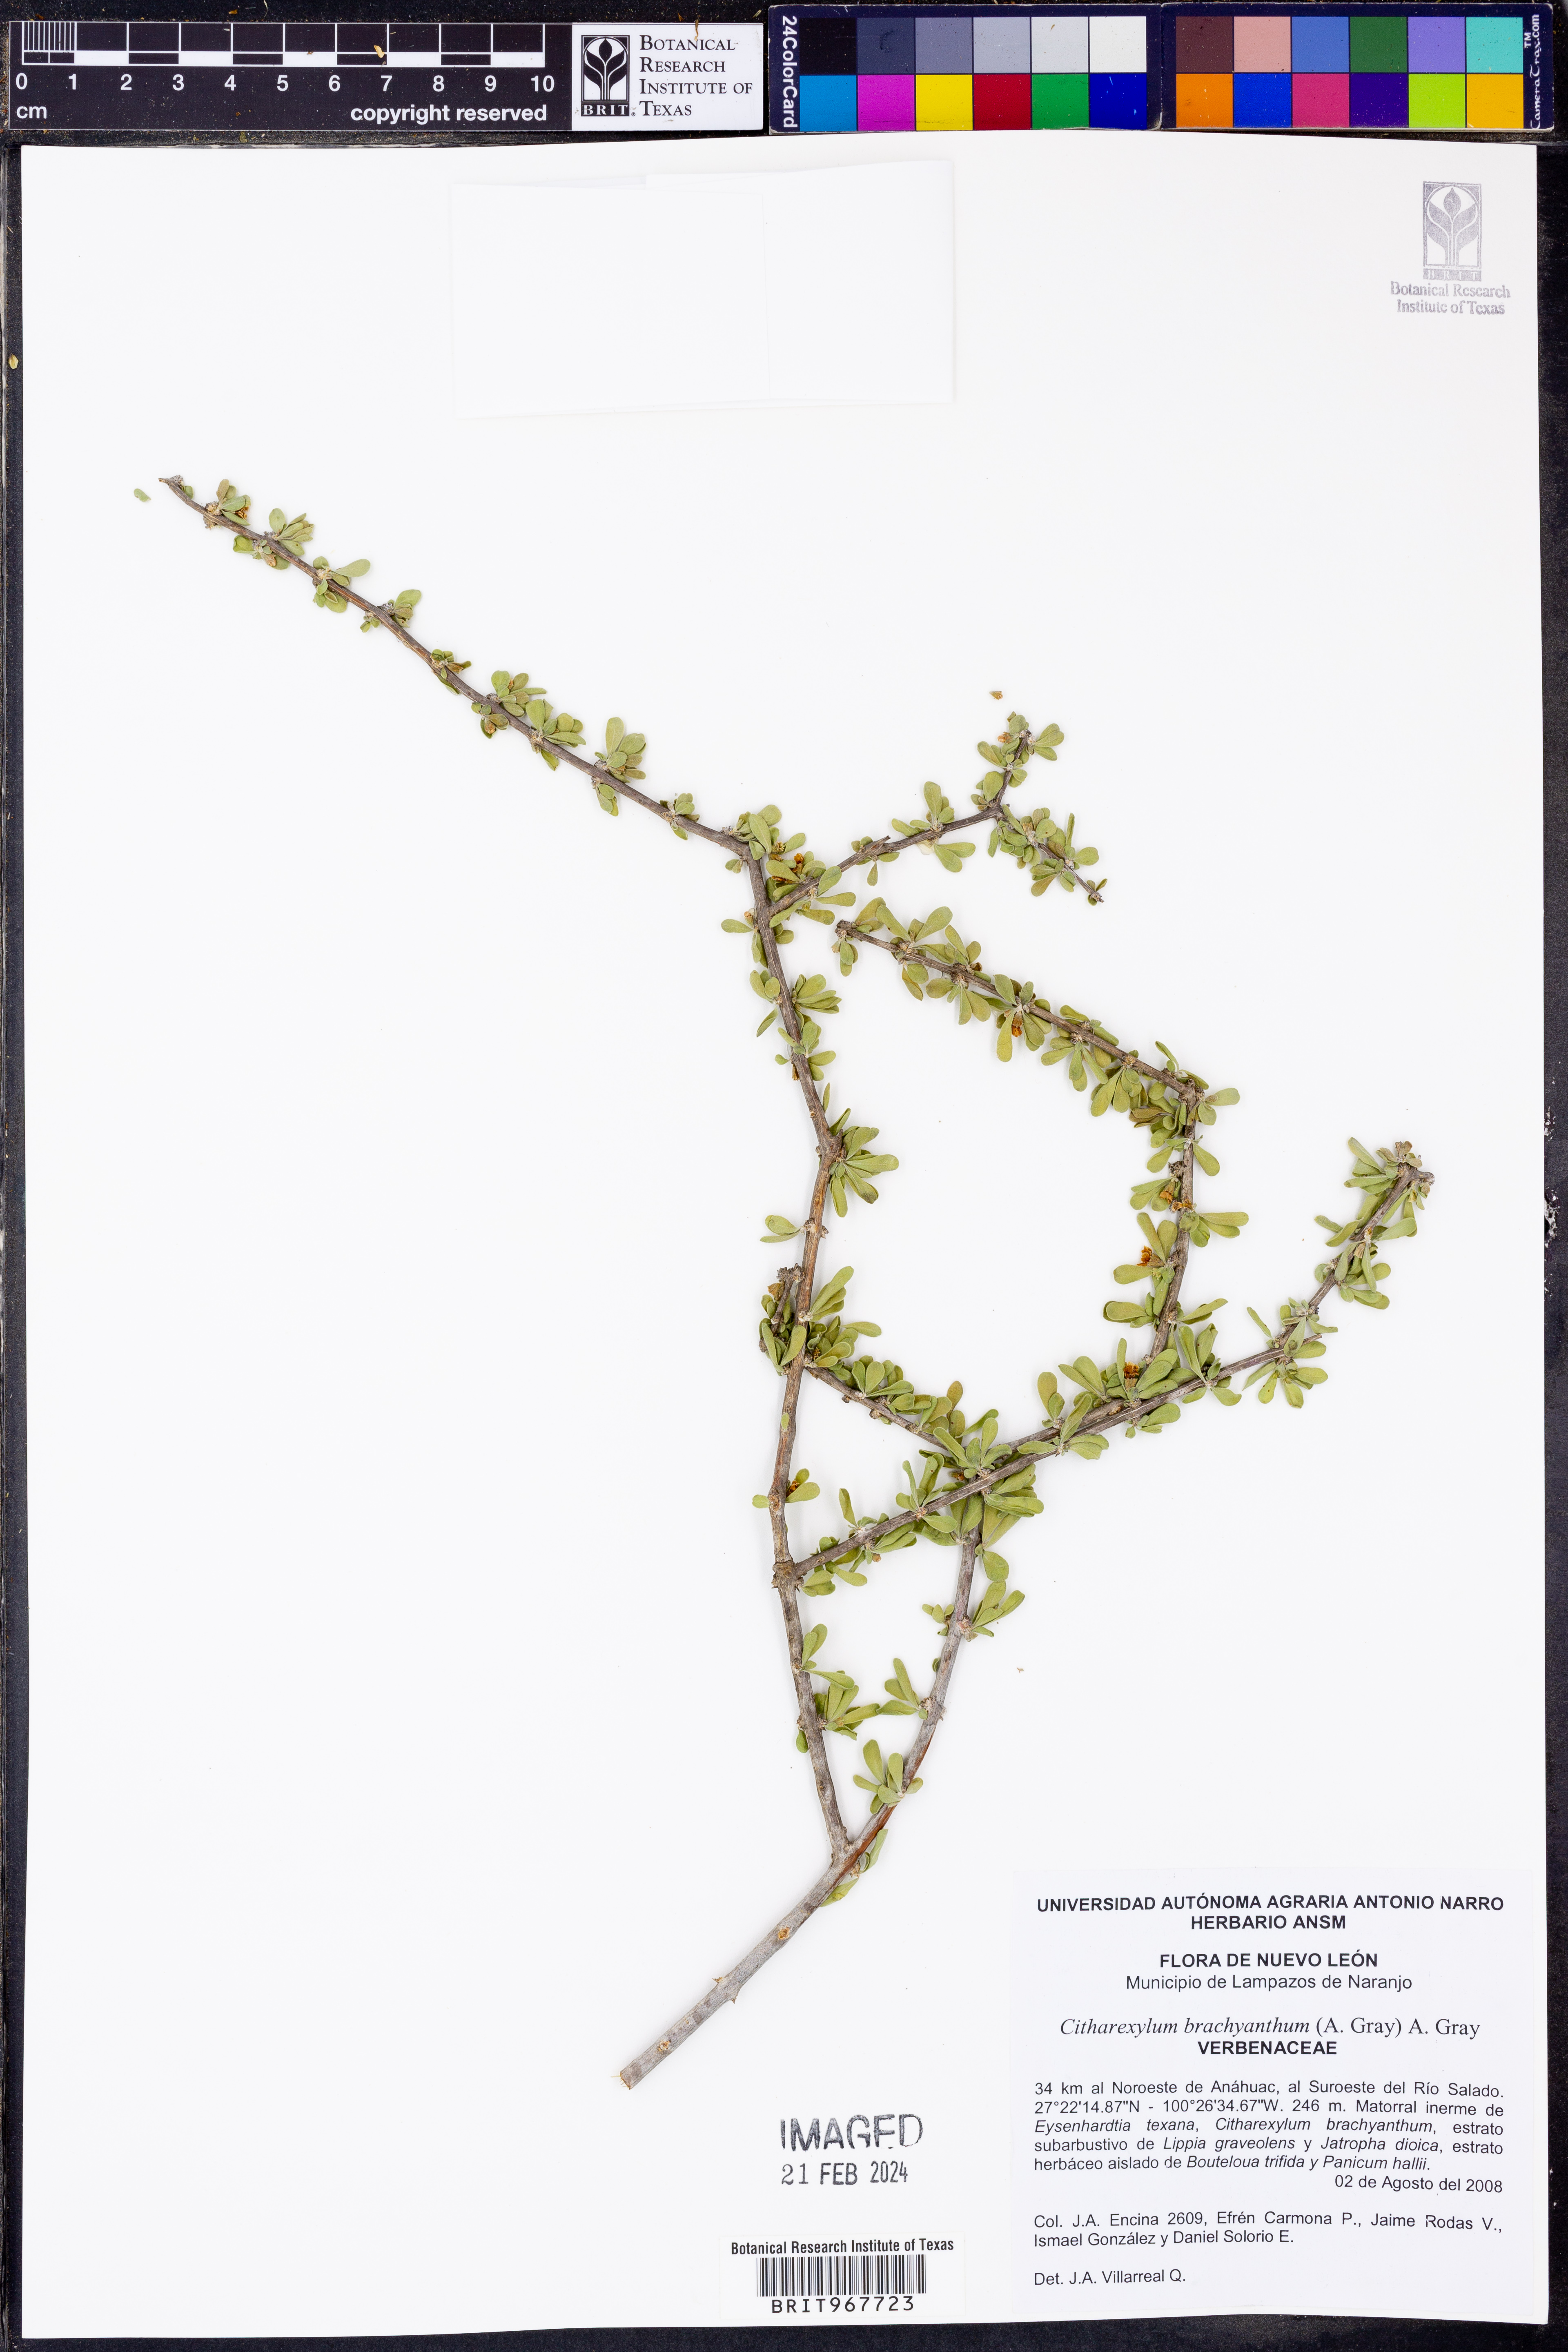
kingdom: Plantae
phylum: Tracheophyta
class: Magnoliopsida
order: Lamiales
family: Verbenaceae
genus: Citharexylum
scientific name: Citharexylum
